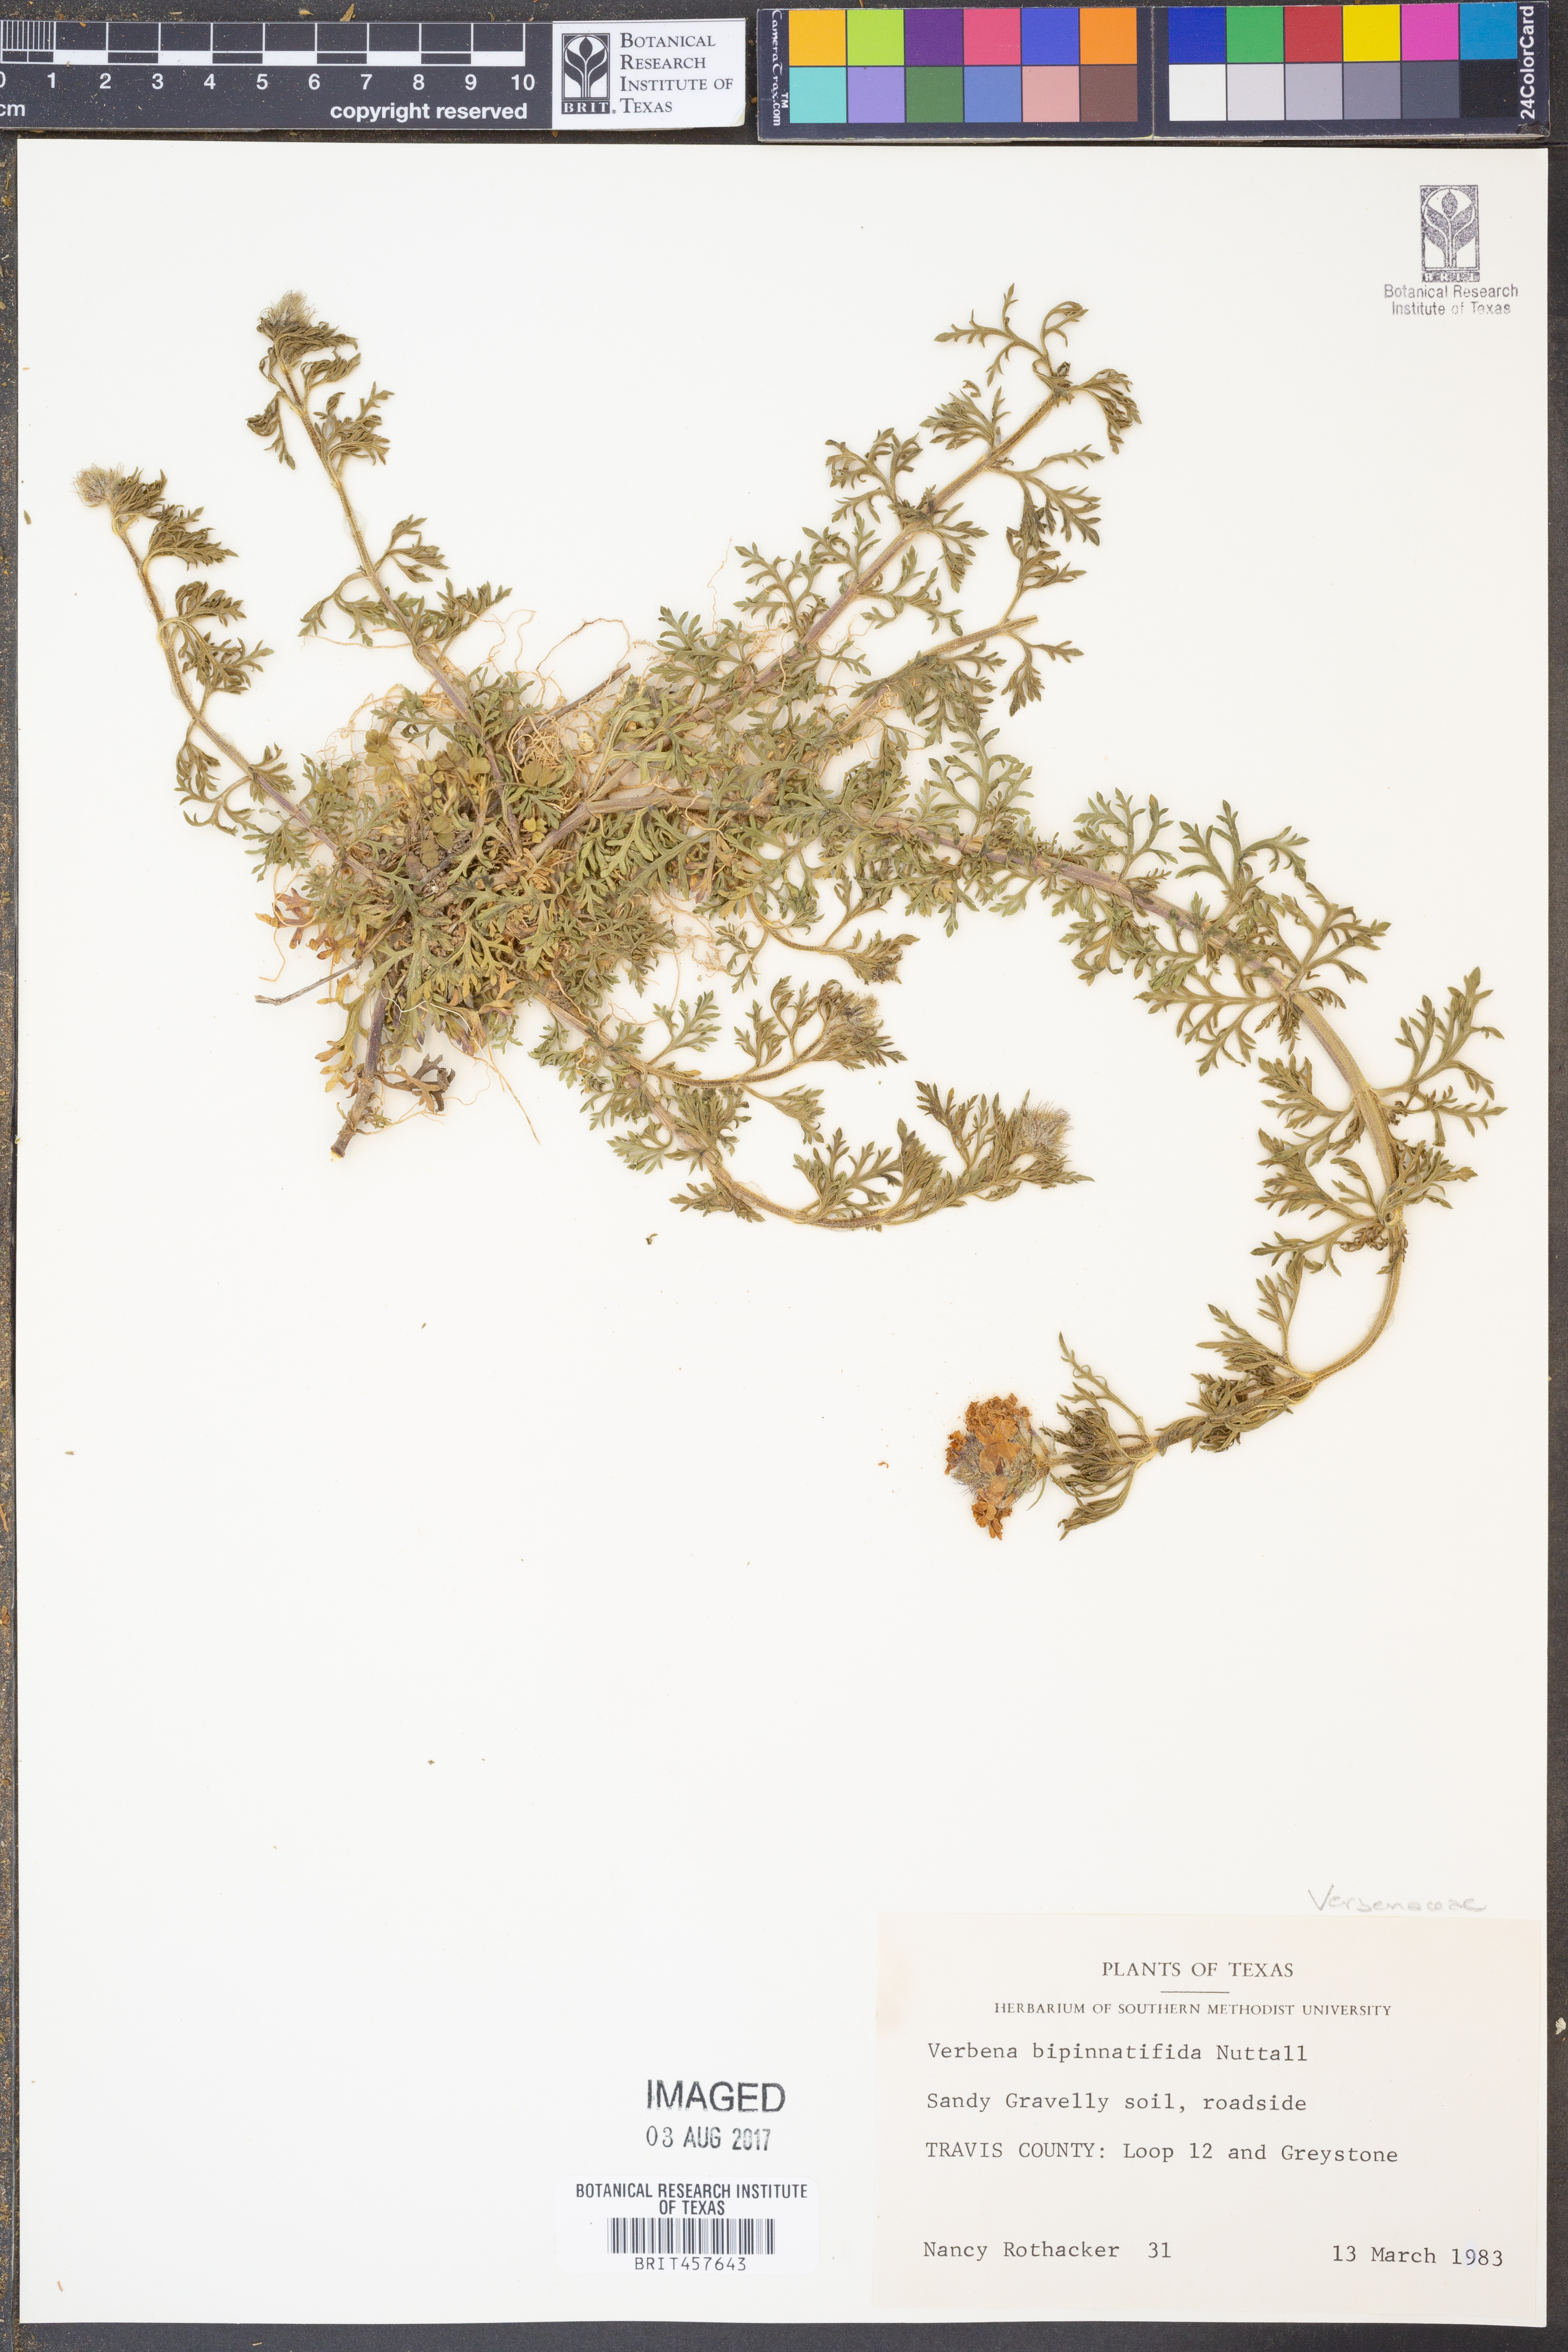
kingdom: Plantae
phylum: Tracheophyta
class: Magnoliopsida
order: Lamiales
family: Verbenaceae
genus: Verbena
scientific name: Verbena bipinnatifida
